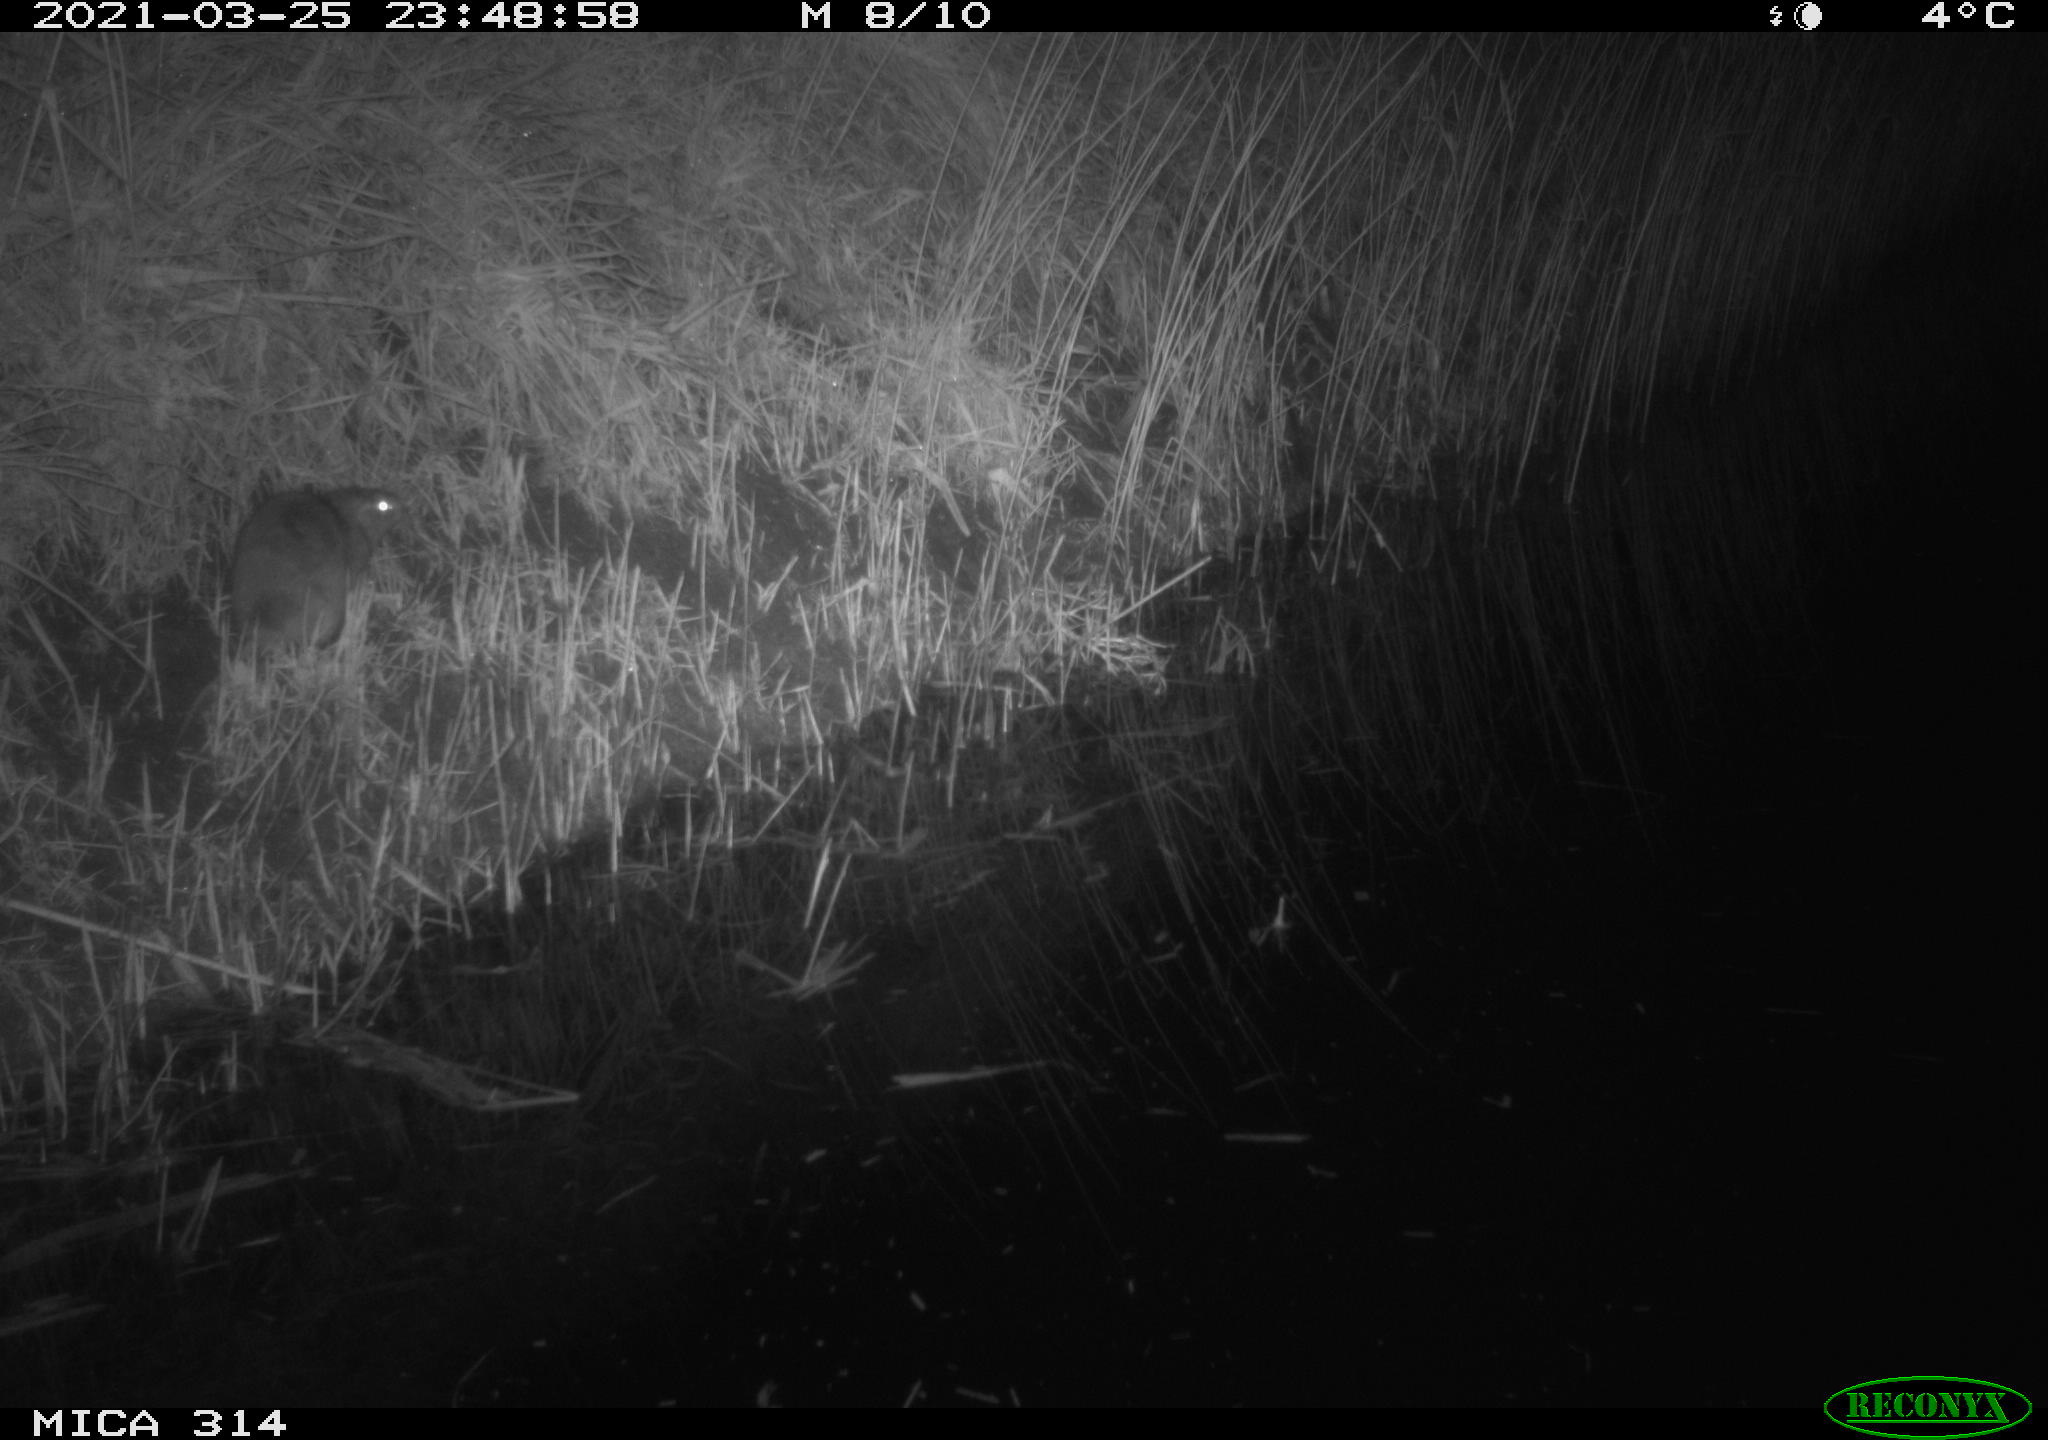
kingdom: Animalia
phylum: Chordata
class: Aves
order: Anseriformes
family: Anatidae
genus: Anas
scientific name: Anas platyrhynchos
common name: Mallard
